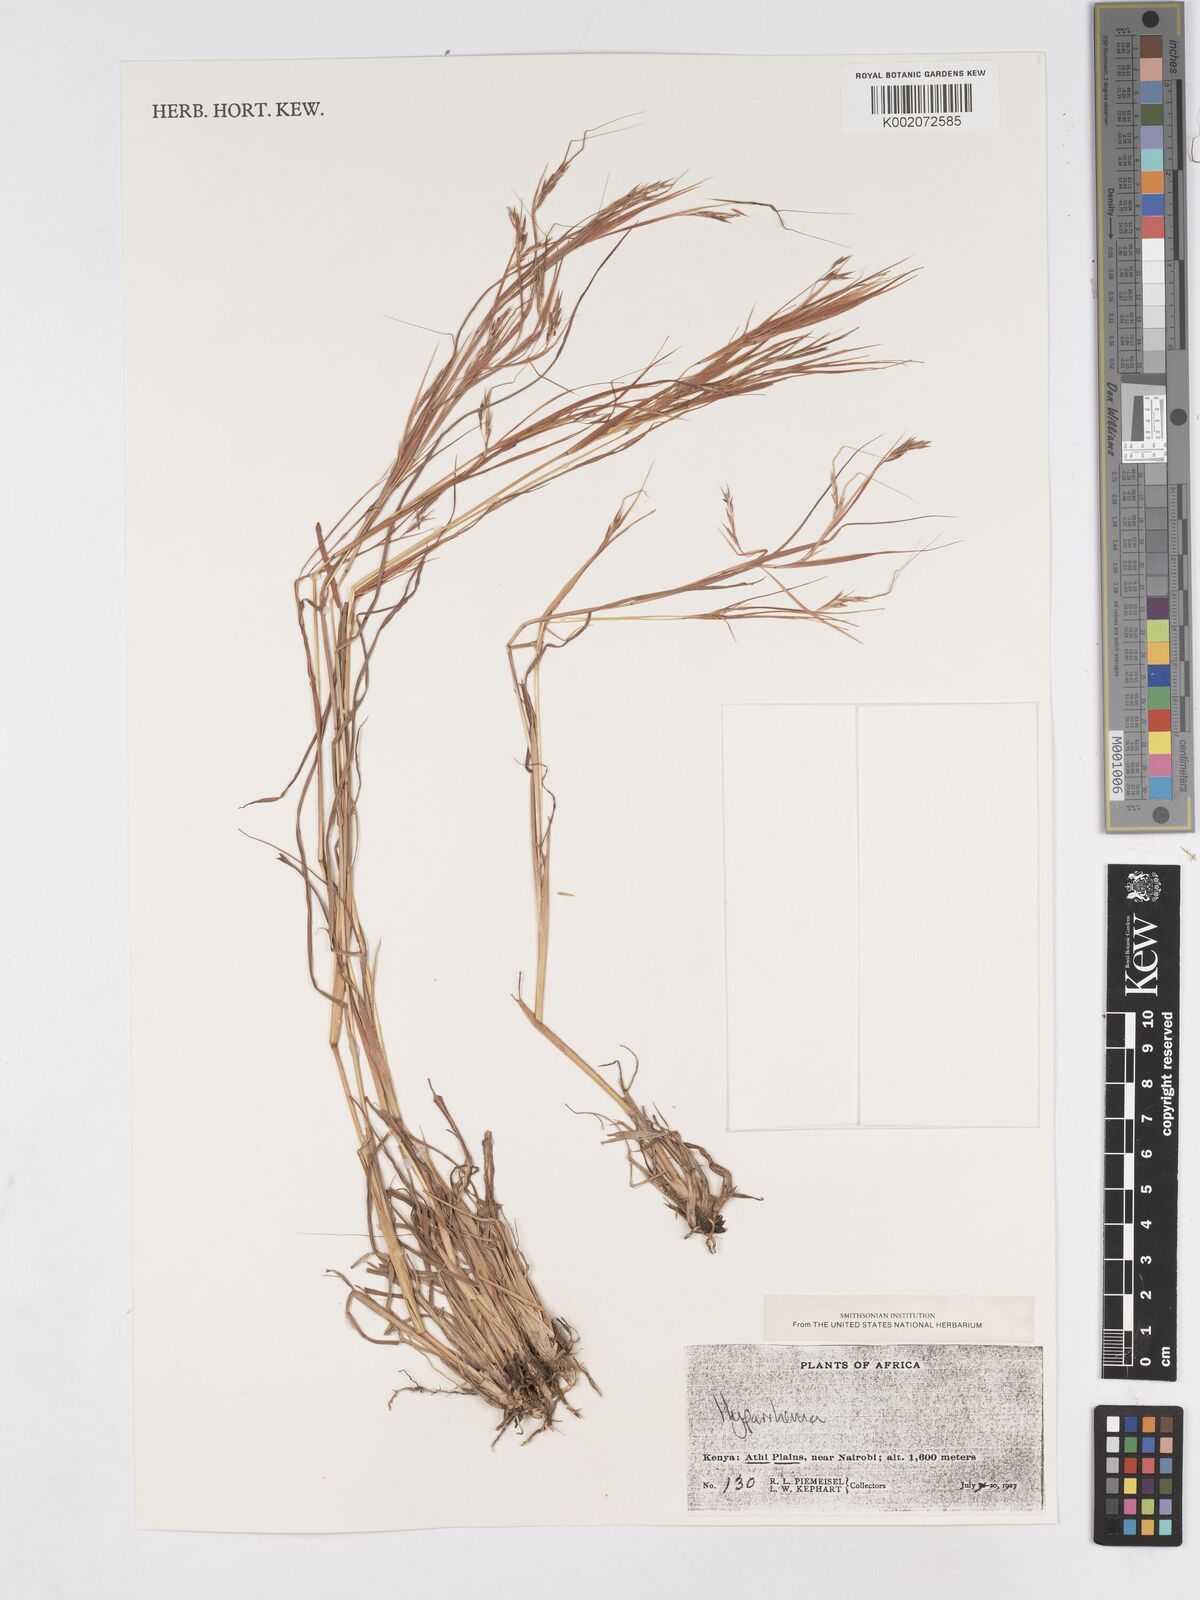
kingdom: Plantae
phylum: Tracheophyta
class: Liliopsida
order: Poales
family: Poaceae
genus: Hyparrhenia
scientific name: Hyparrhenia
